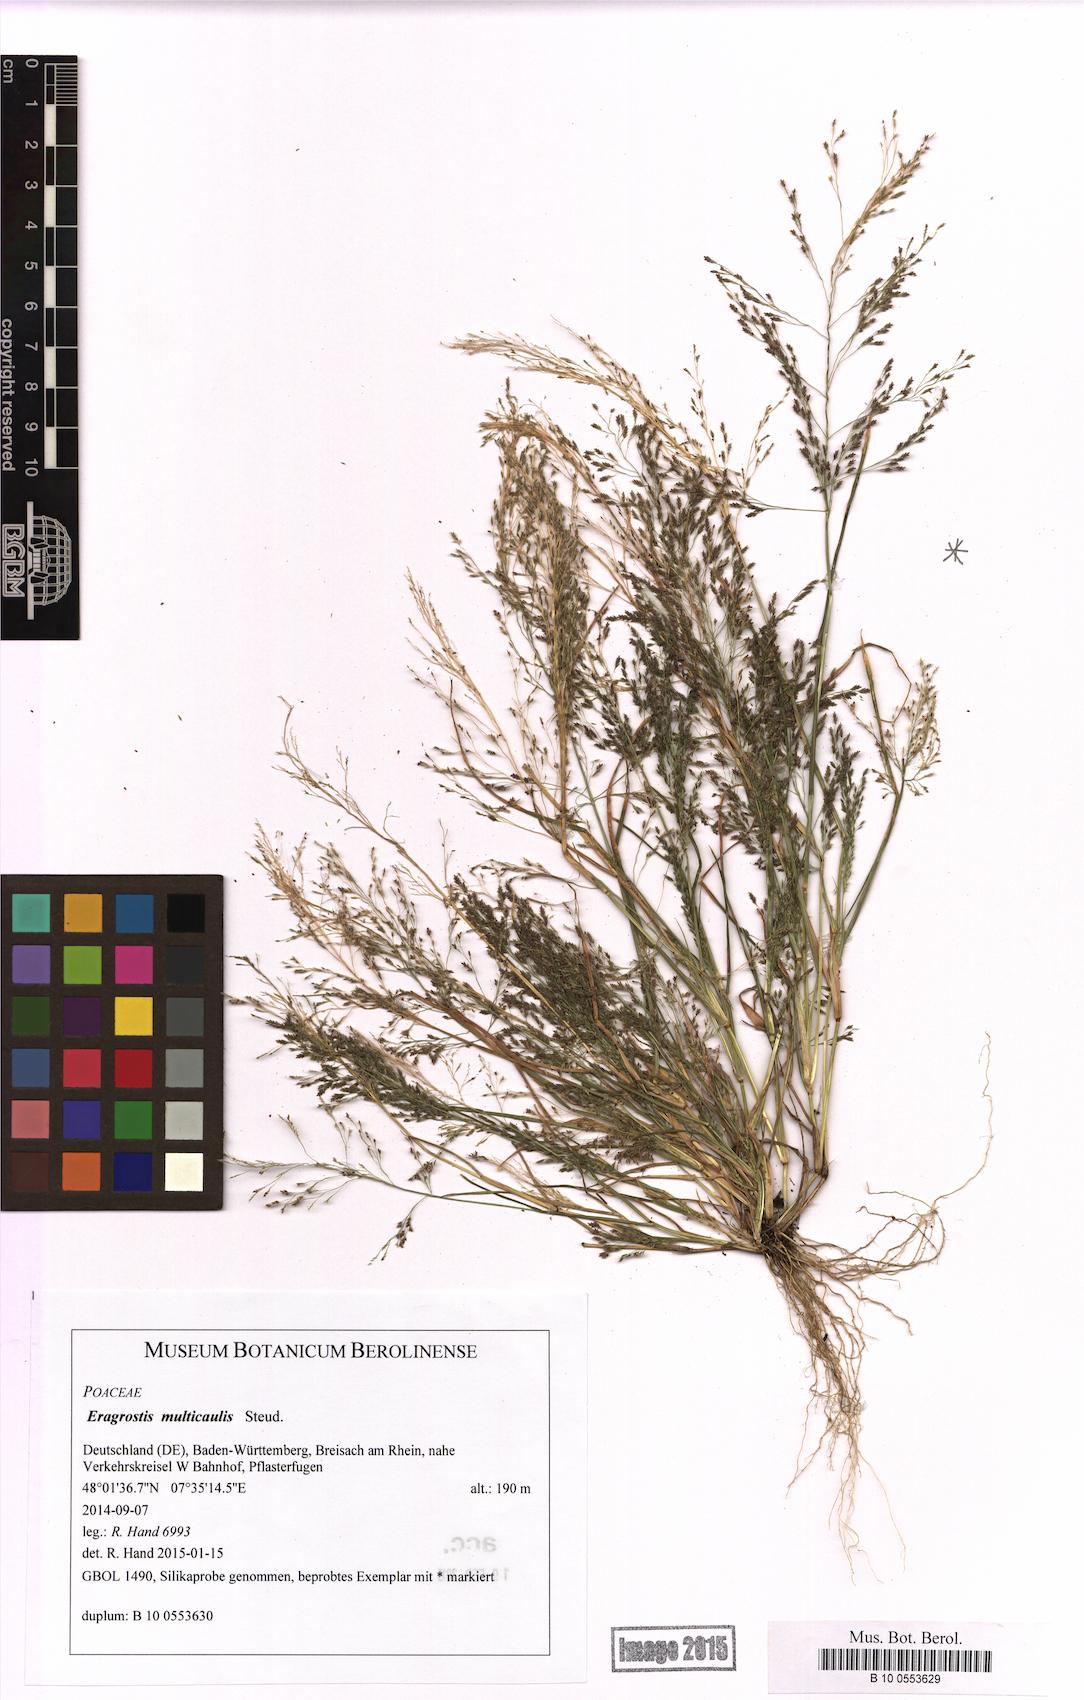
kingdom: Plantae
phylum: Tracheophyta
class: Liliopsida
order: Poales
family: Poaceae
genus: Eragrostis
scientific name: Eragrostis multicaulis
